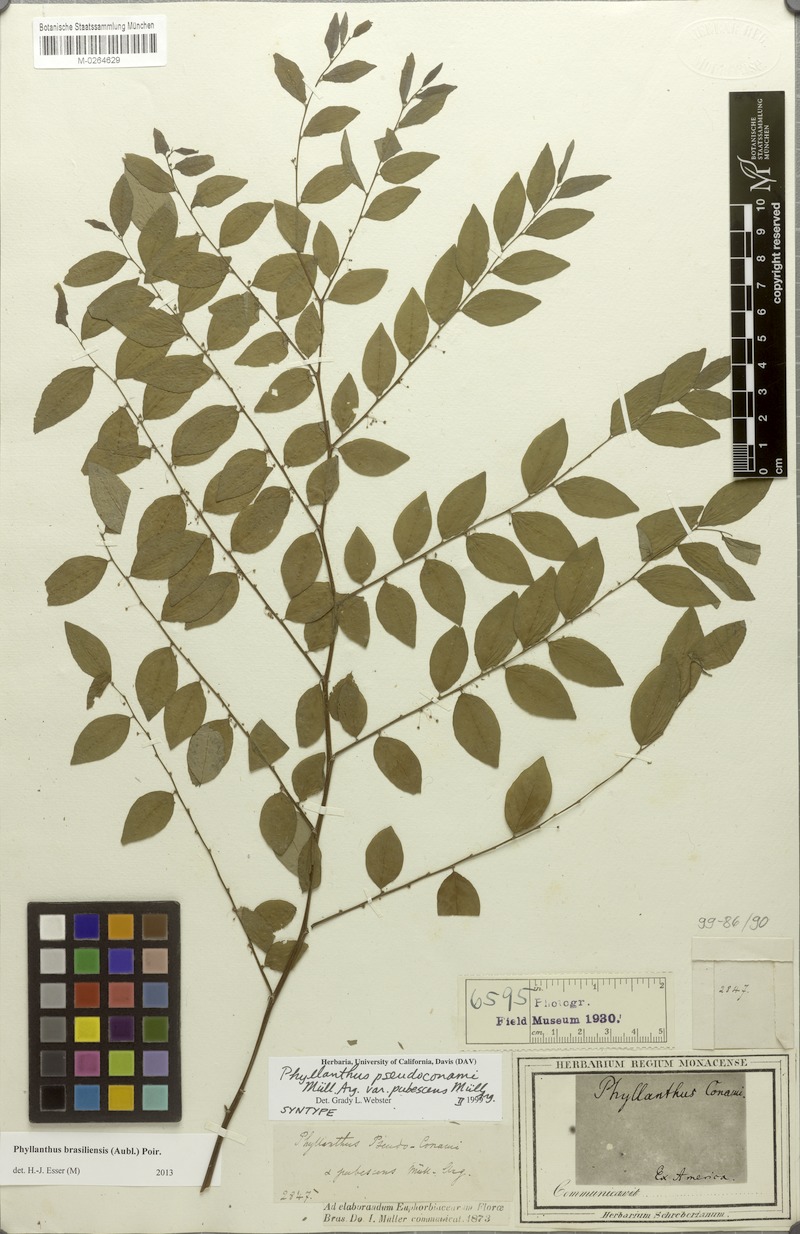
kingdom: Plantae
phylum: Tracheophyta
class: Magnoliopsida
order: Malpighiales
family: Phyllanthaceae
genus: Phyllanthus
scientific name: Phyllanthus brasiliensis
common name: Fish-poison
